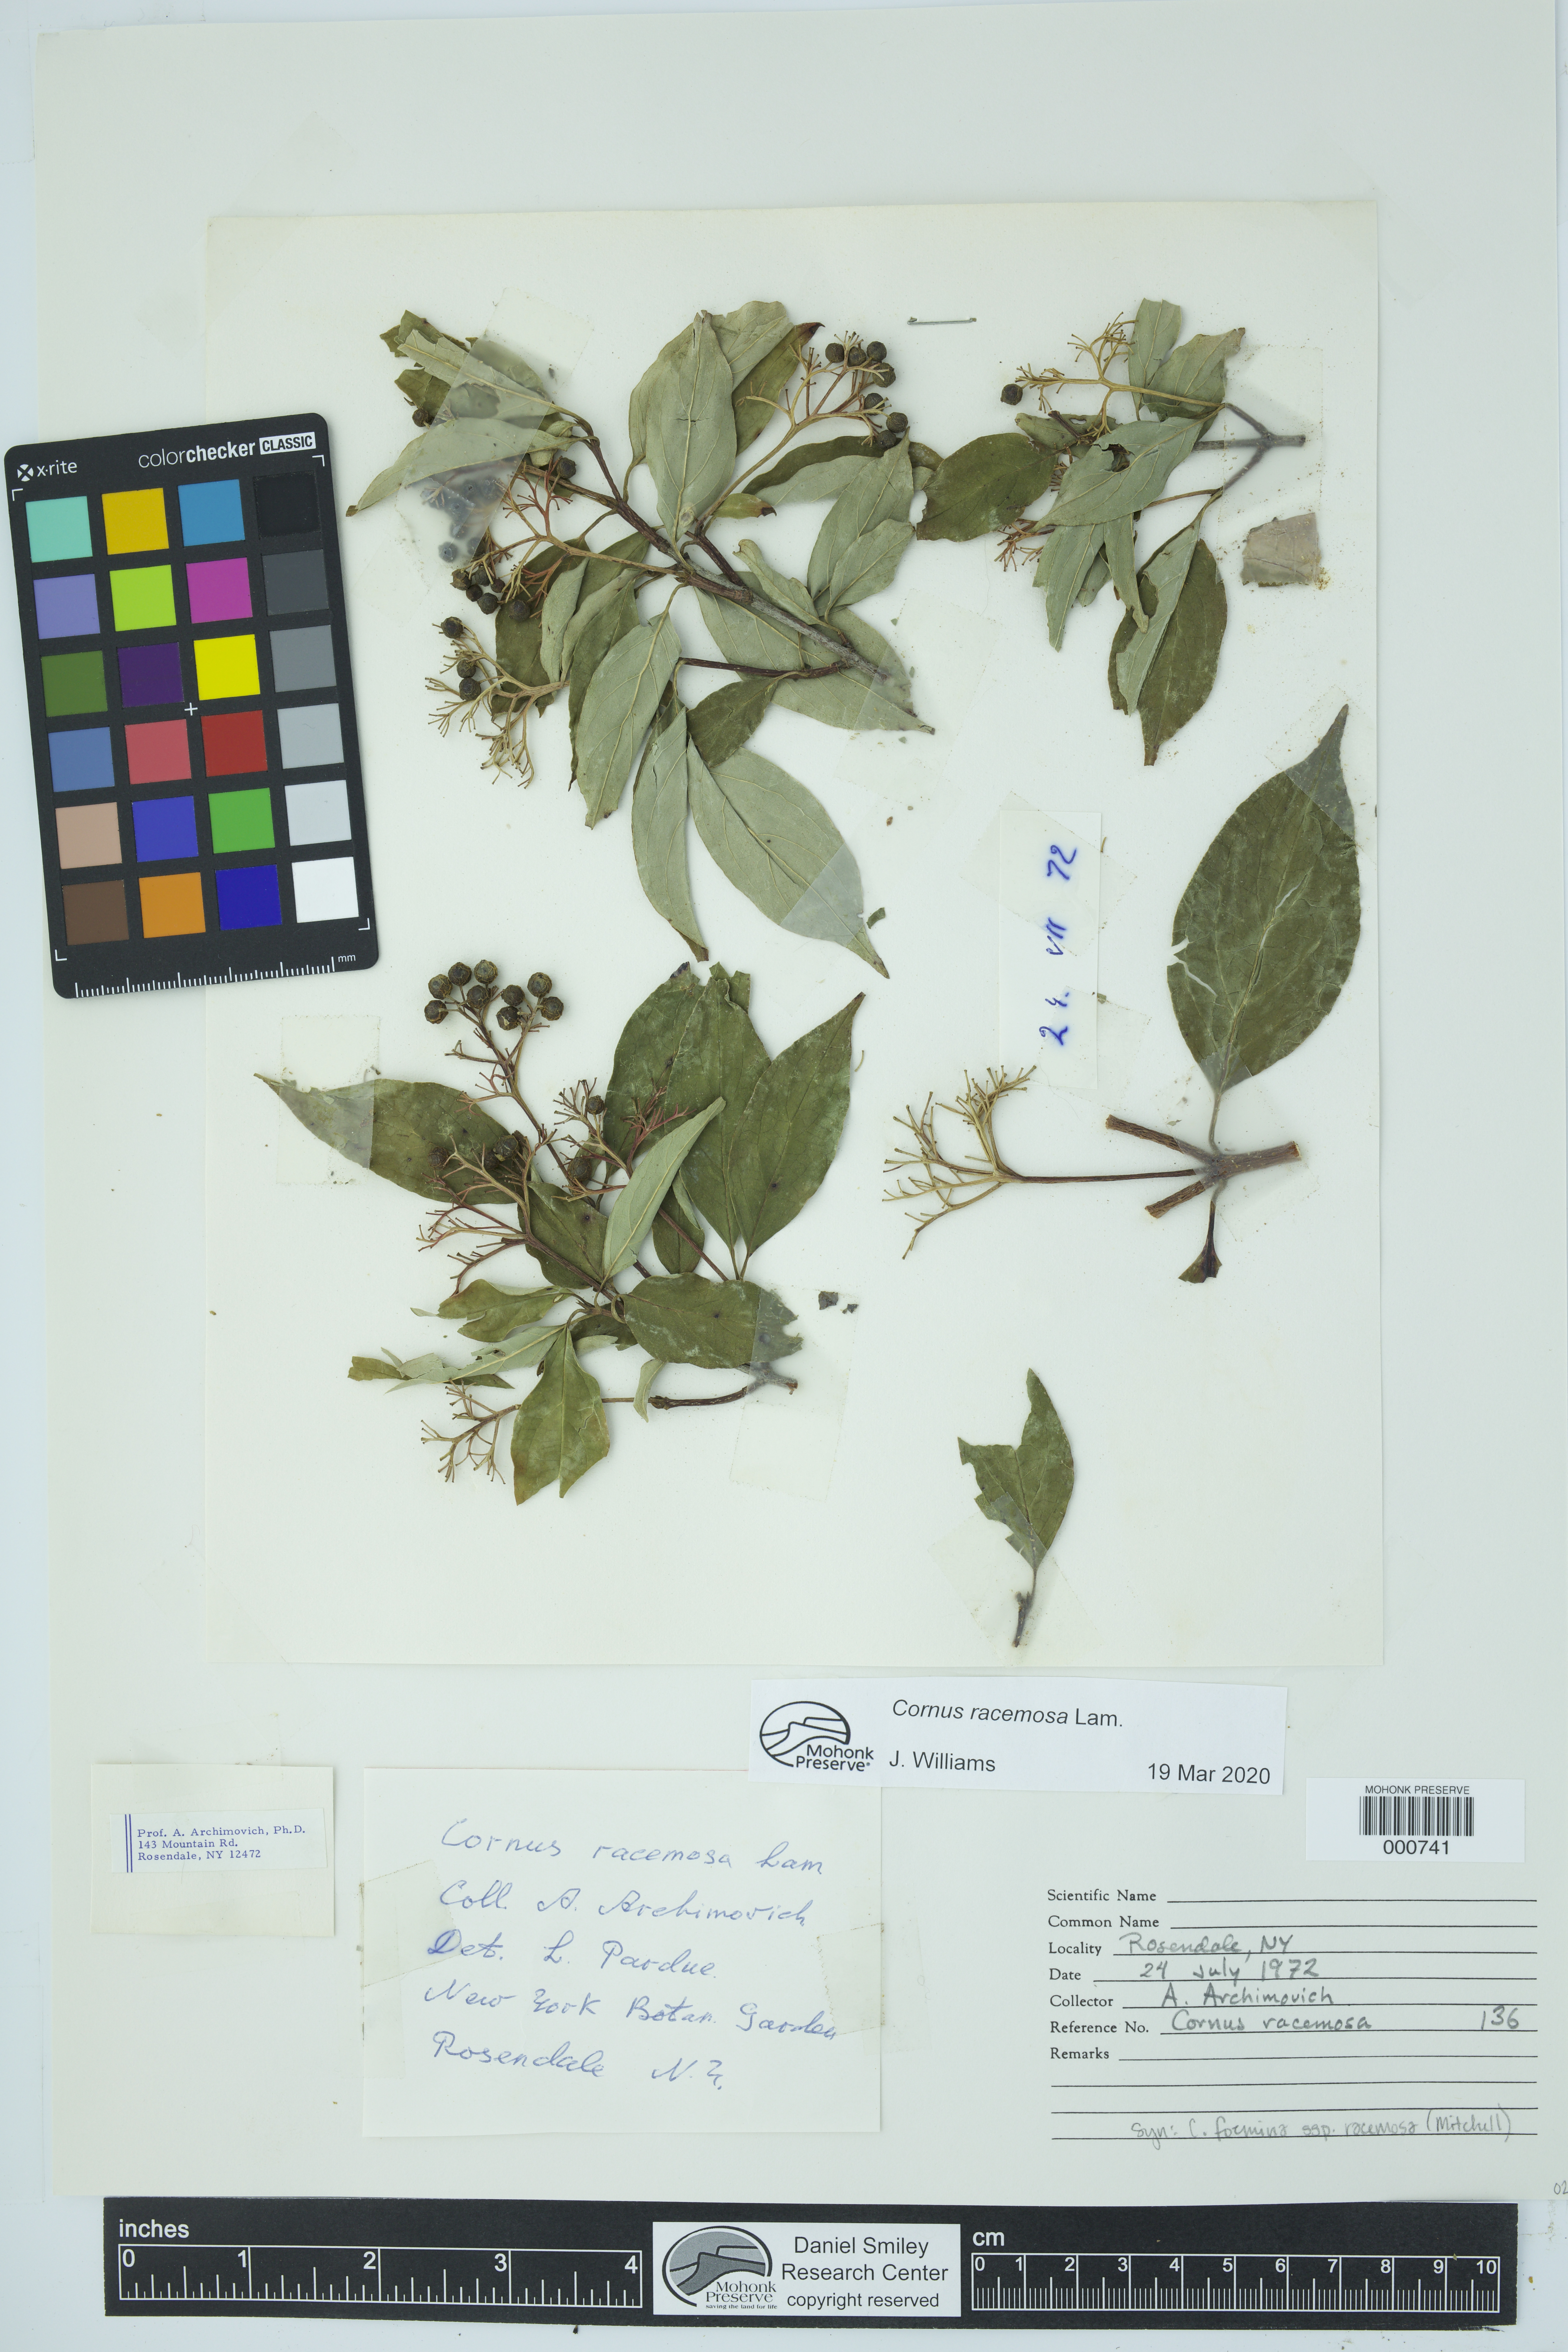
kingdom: Plantae
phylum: Tracheophyta
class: Magnoliopsida
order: Cornales
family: Cornaceae
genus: Cornus
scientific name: Cornus racemosa
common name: Panicled dogwood
